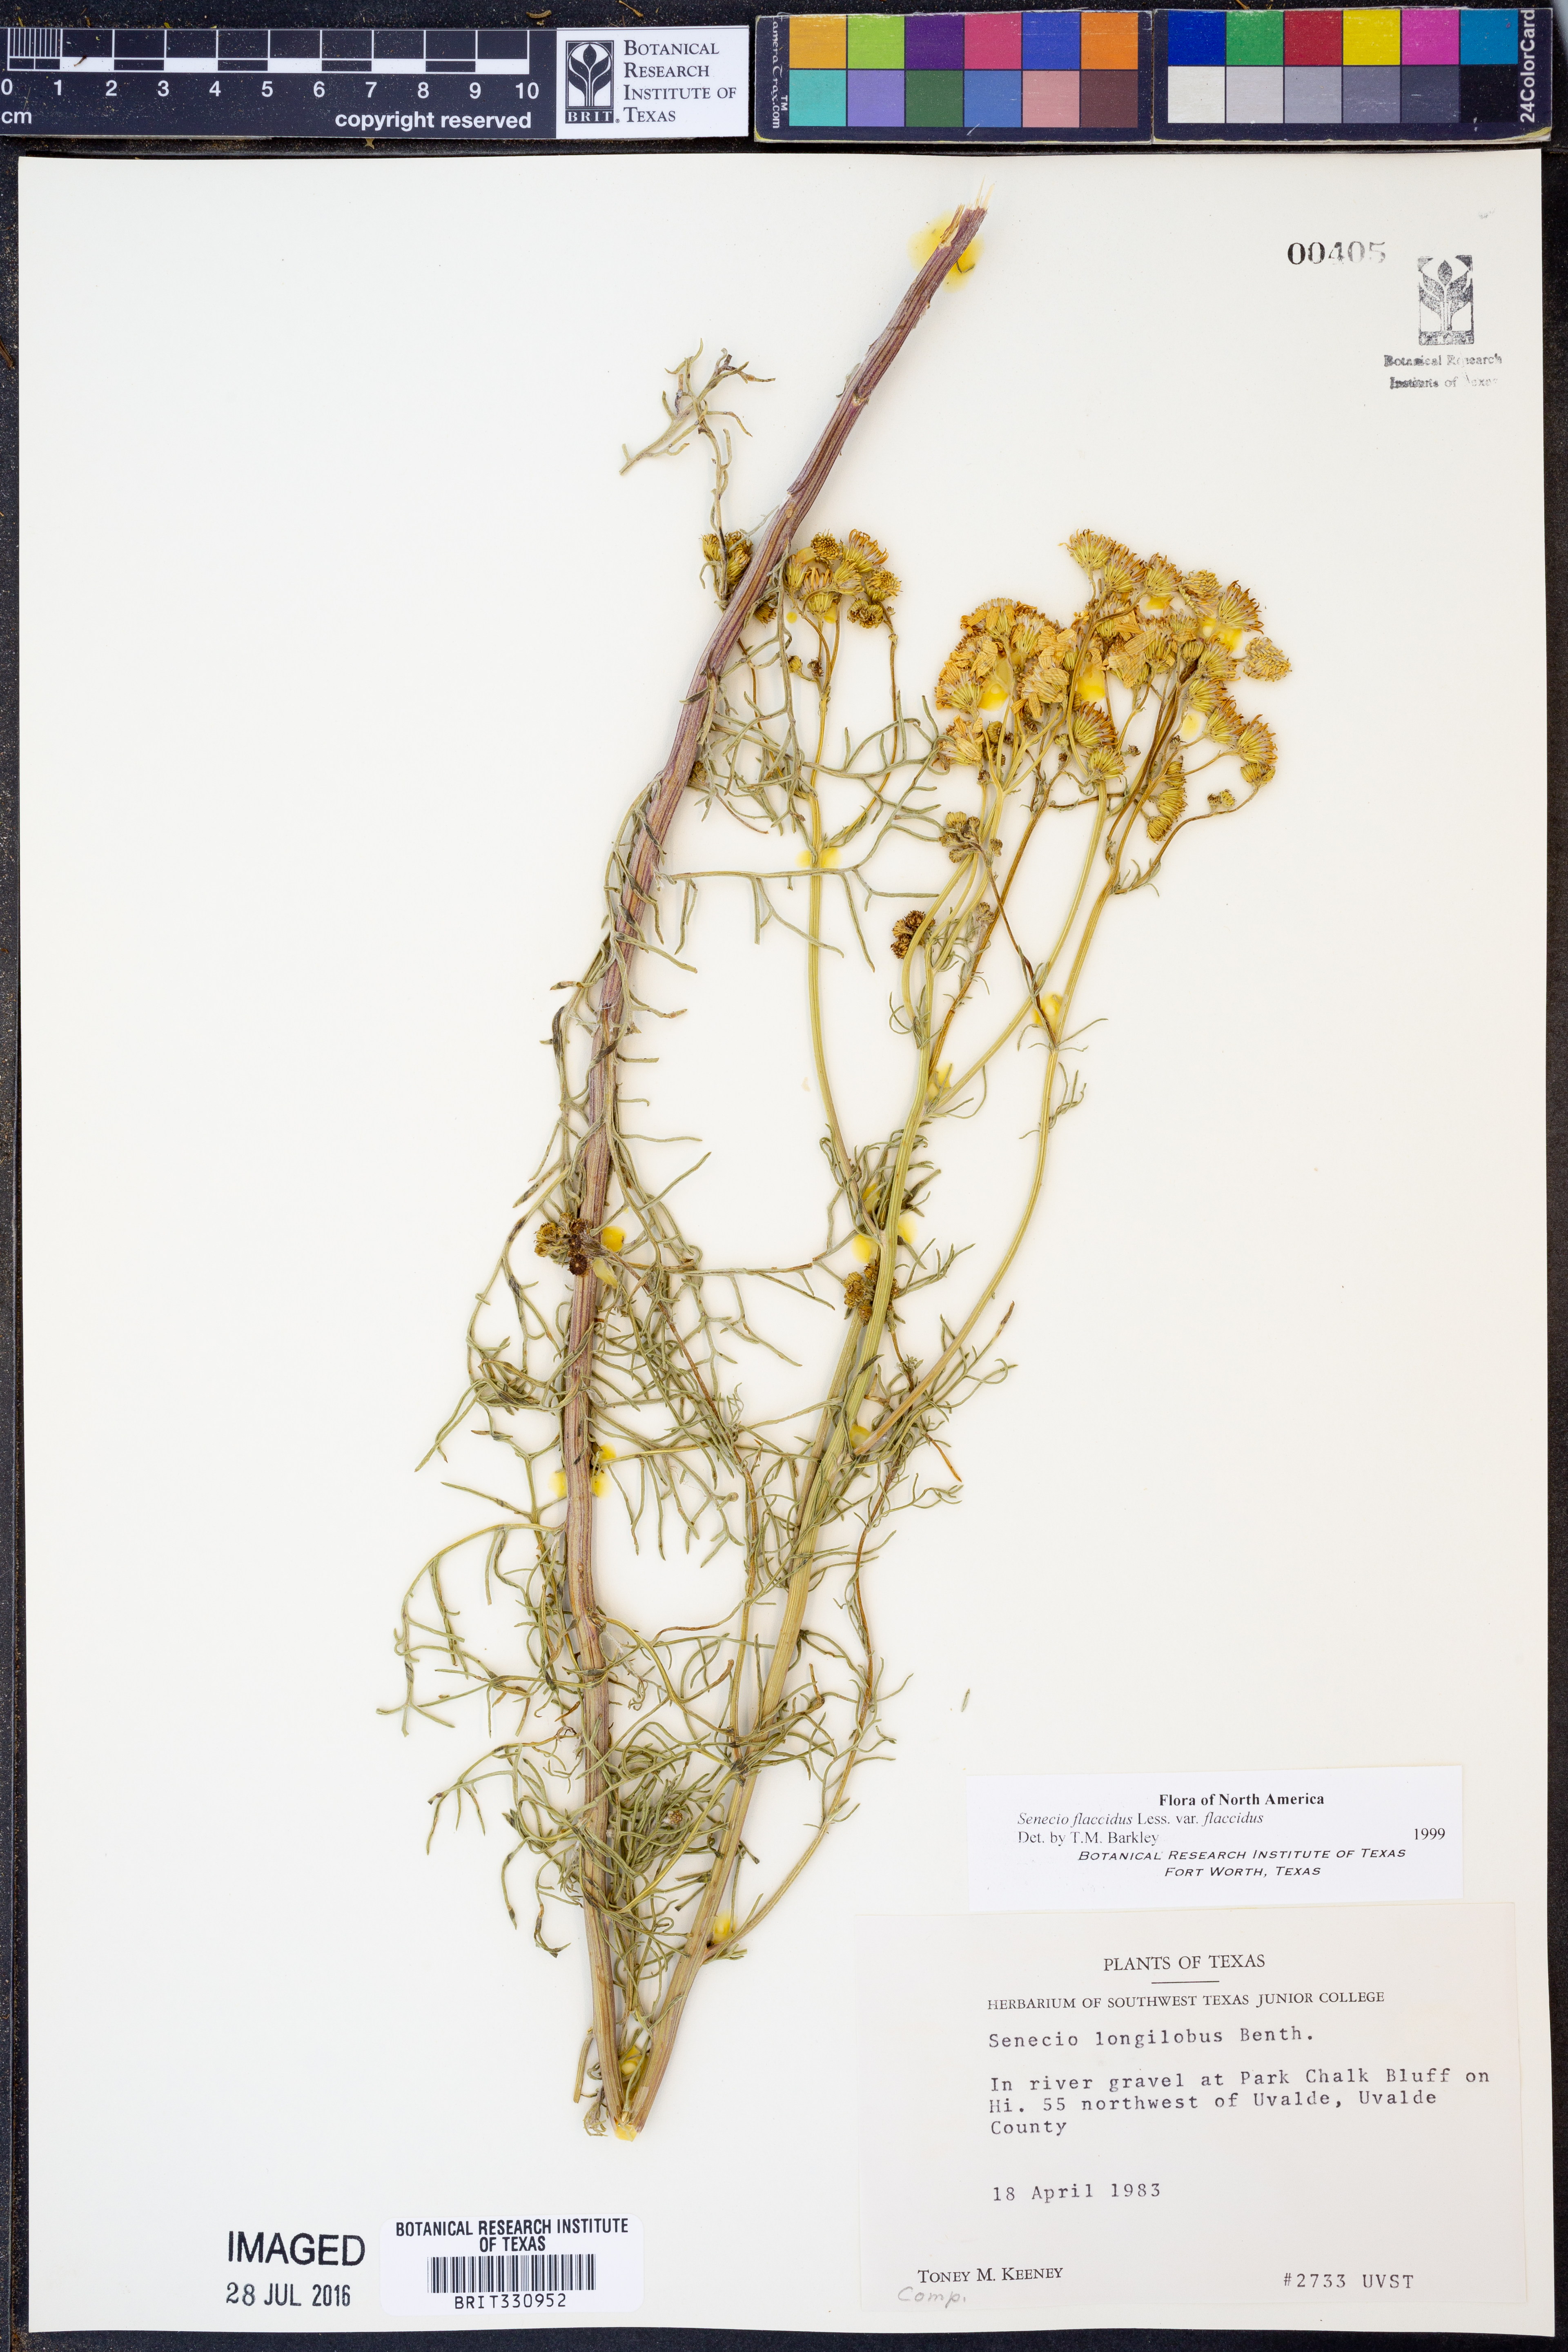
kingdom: Plantae
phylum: Tracheophyta
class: Magnoliopsida
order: Asterales
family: Asteraceae
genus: Senecio
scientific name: Senecio flaccidus
